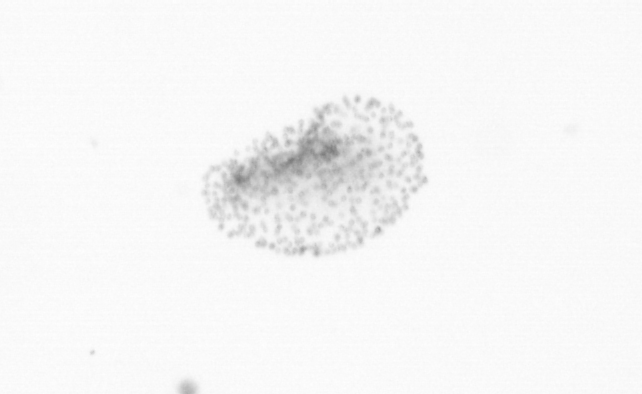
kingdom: Chromista
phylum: Ochrophyta
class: Bacillariophyceae
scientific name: Bacillariophyceae
